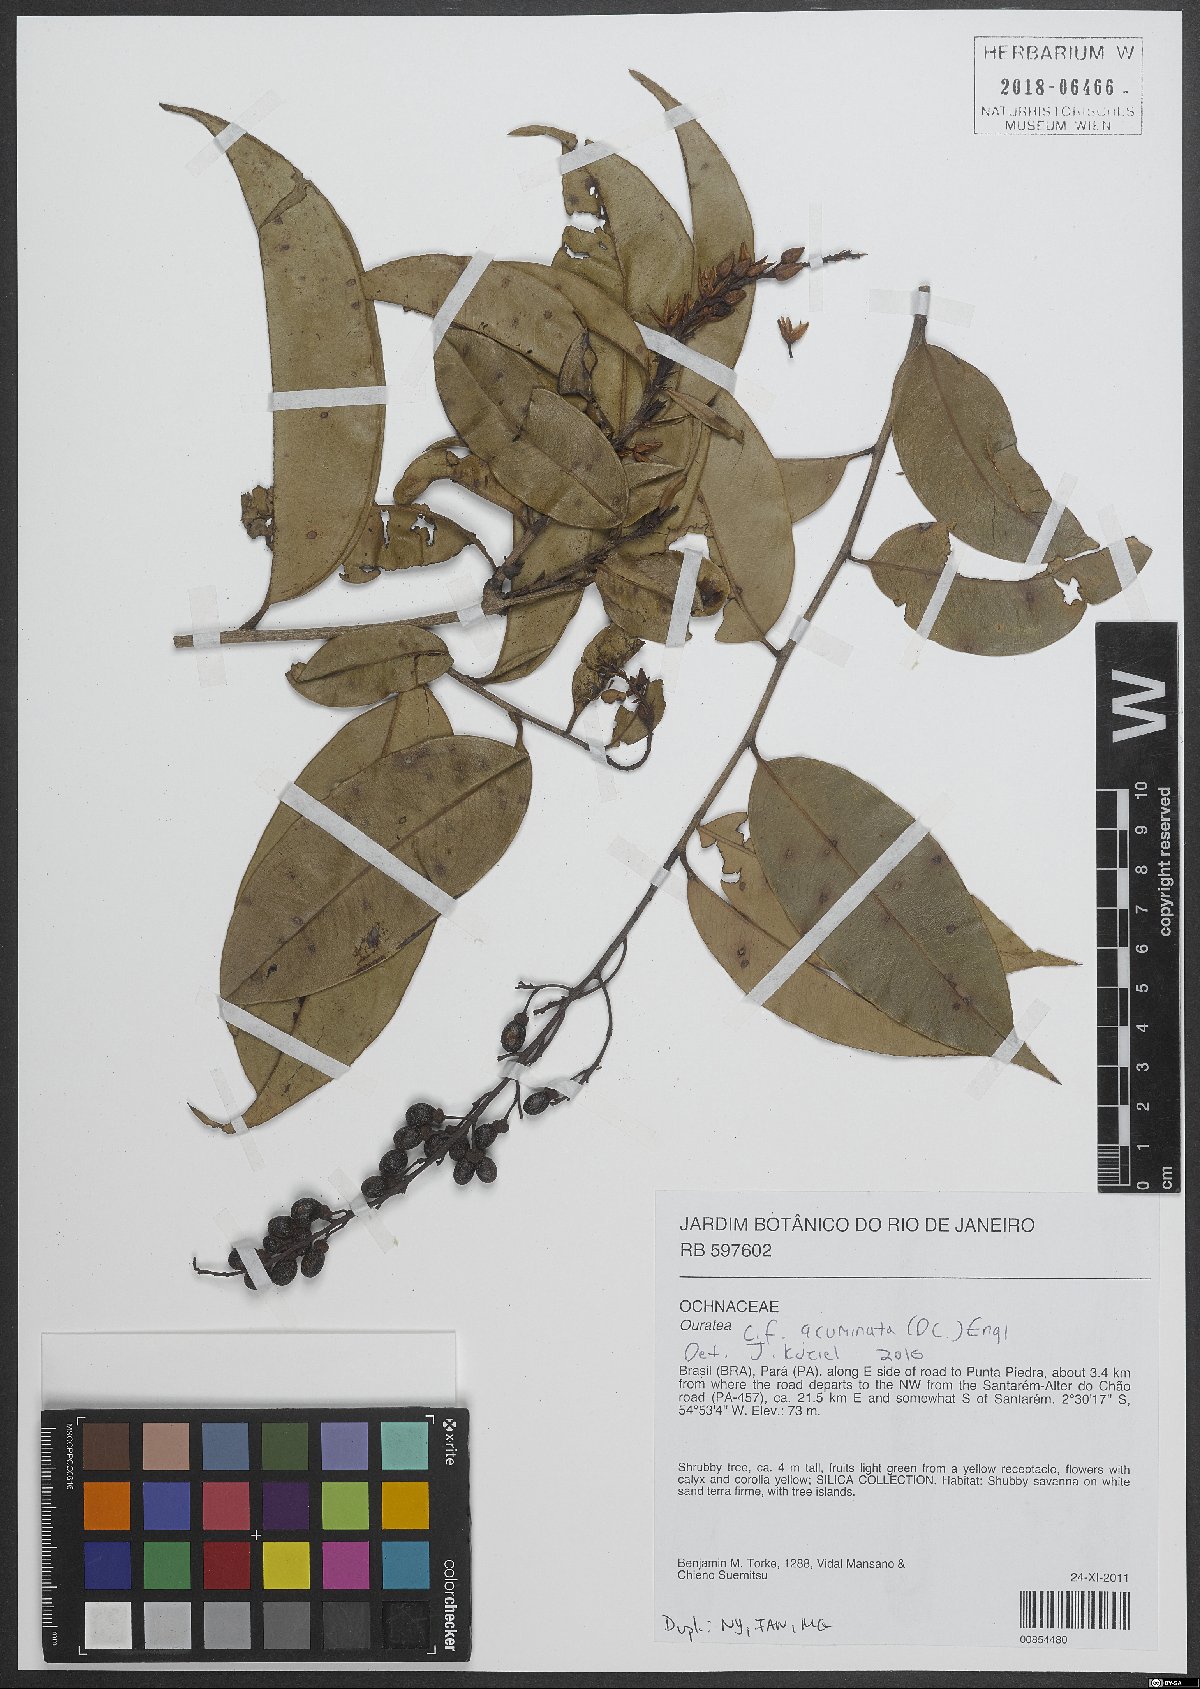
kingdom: Plantae
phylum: Tracheophyta
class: Magnoliopsida
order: Malpighiales
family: Ochnaceae
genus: Ouratea
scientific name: Ouratea acuminata
